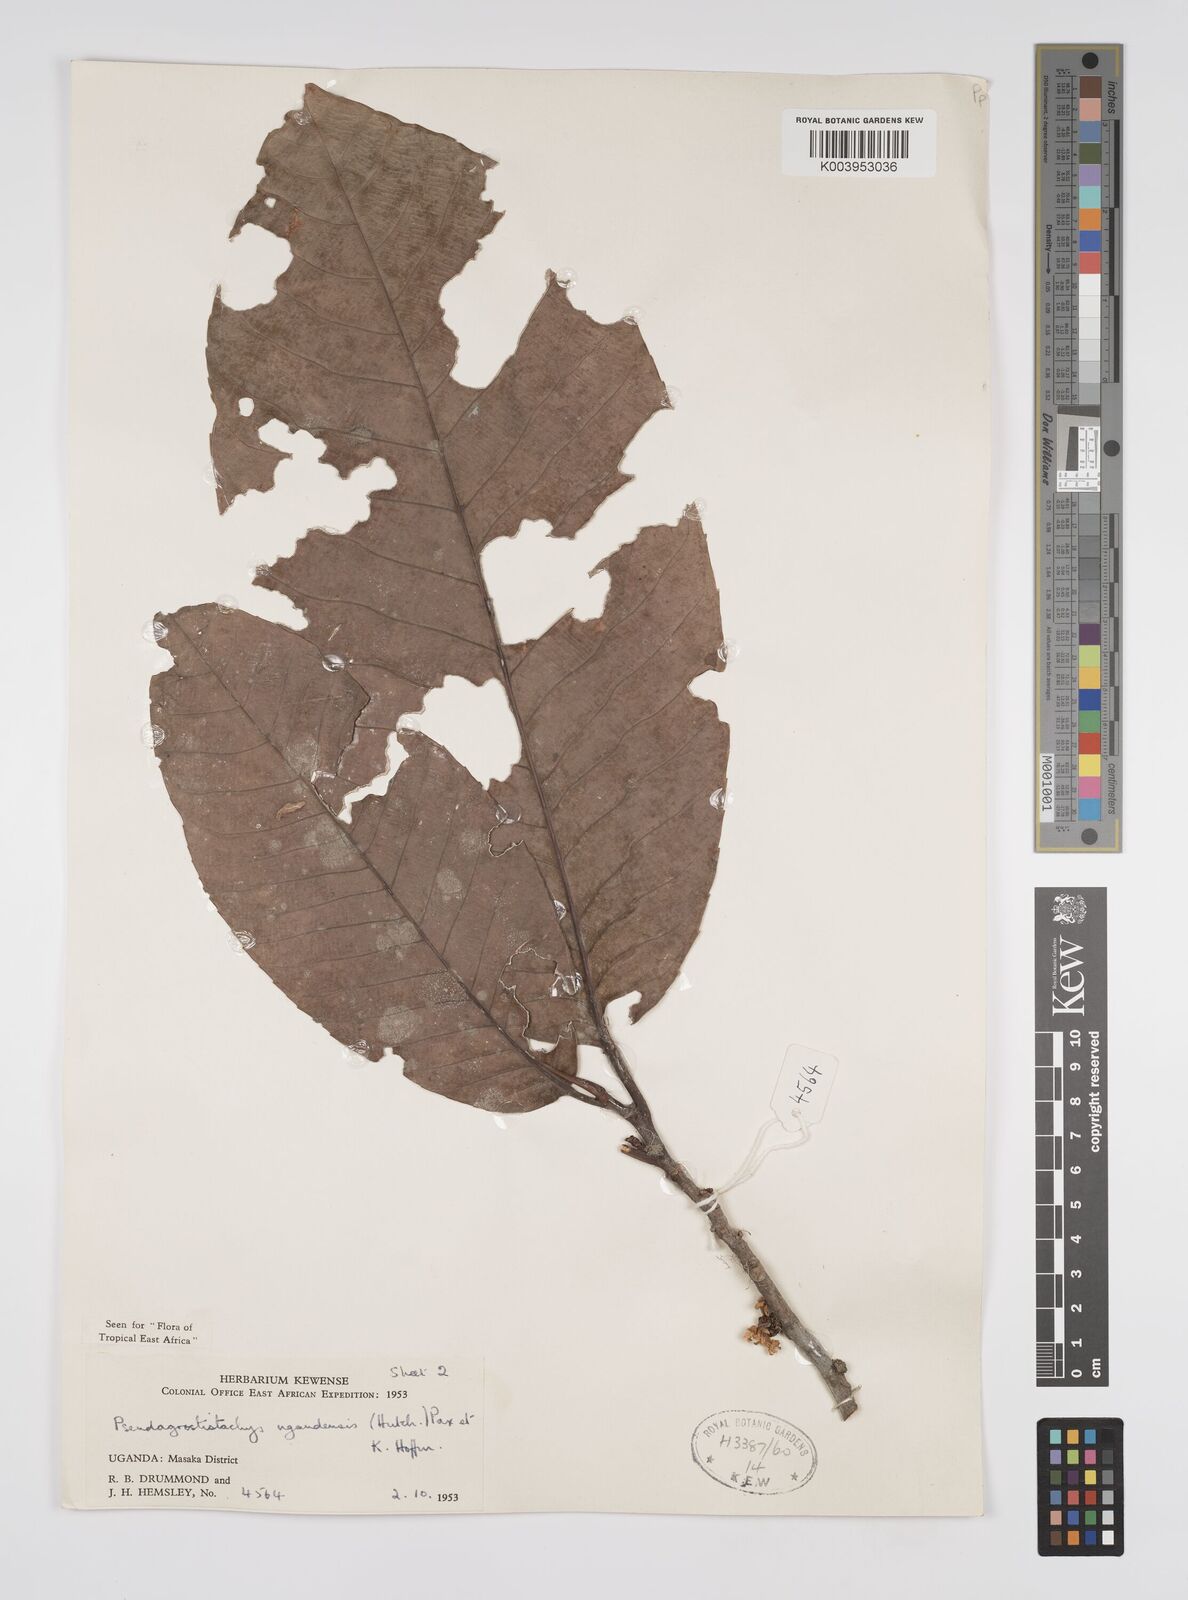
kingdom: Plantae
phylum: Tracheophyta
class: Magnoliopsida
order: Malpighiales
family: Euphorbiaceae
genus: Pseudagrostistachys
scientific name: Pseudagrostistachys ugandensis
